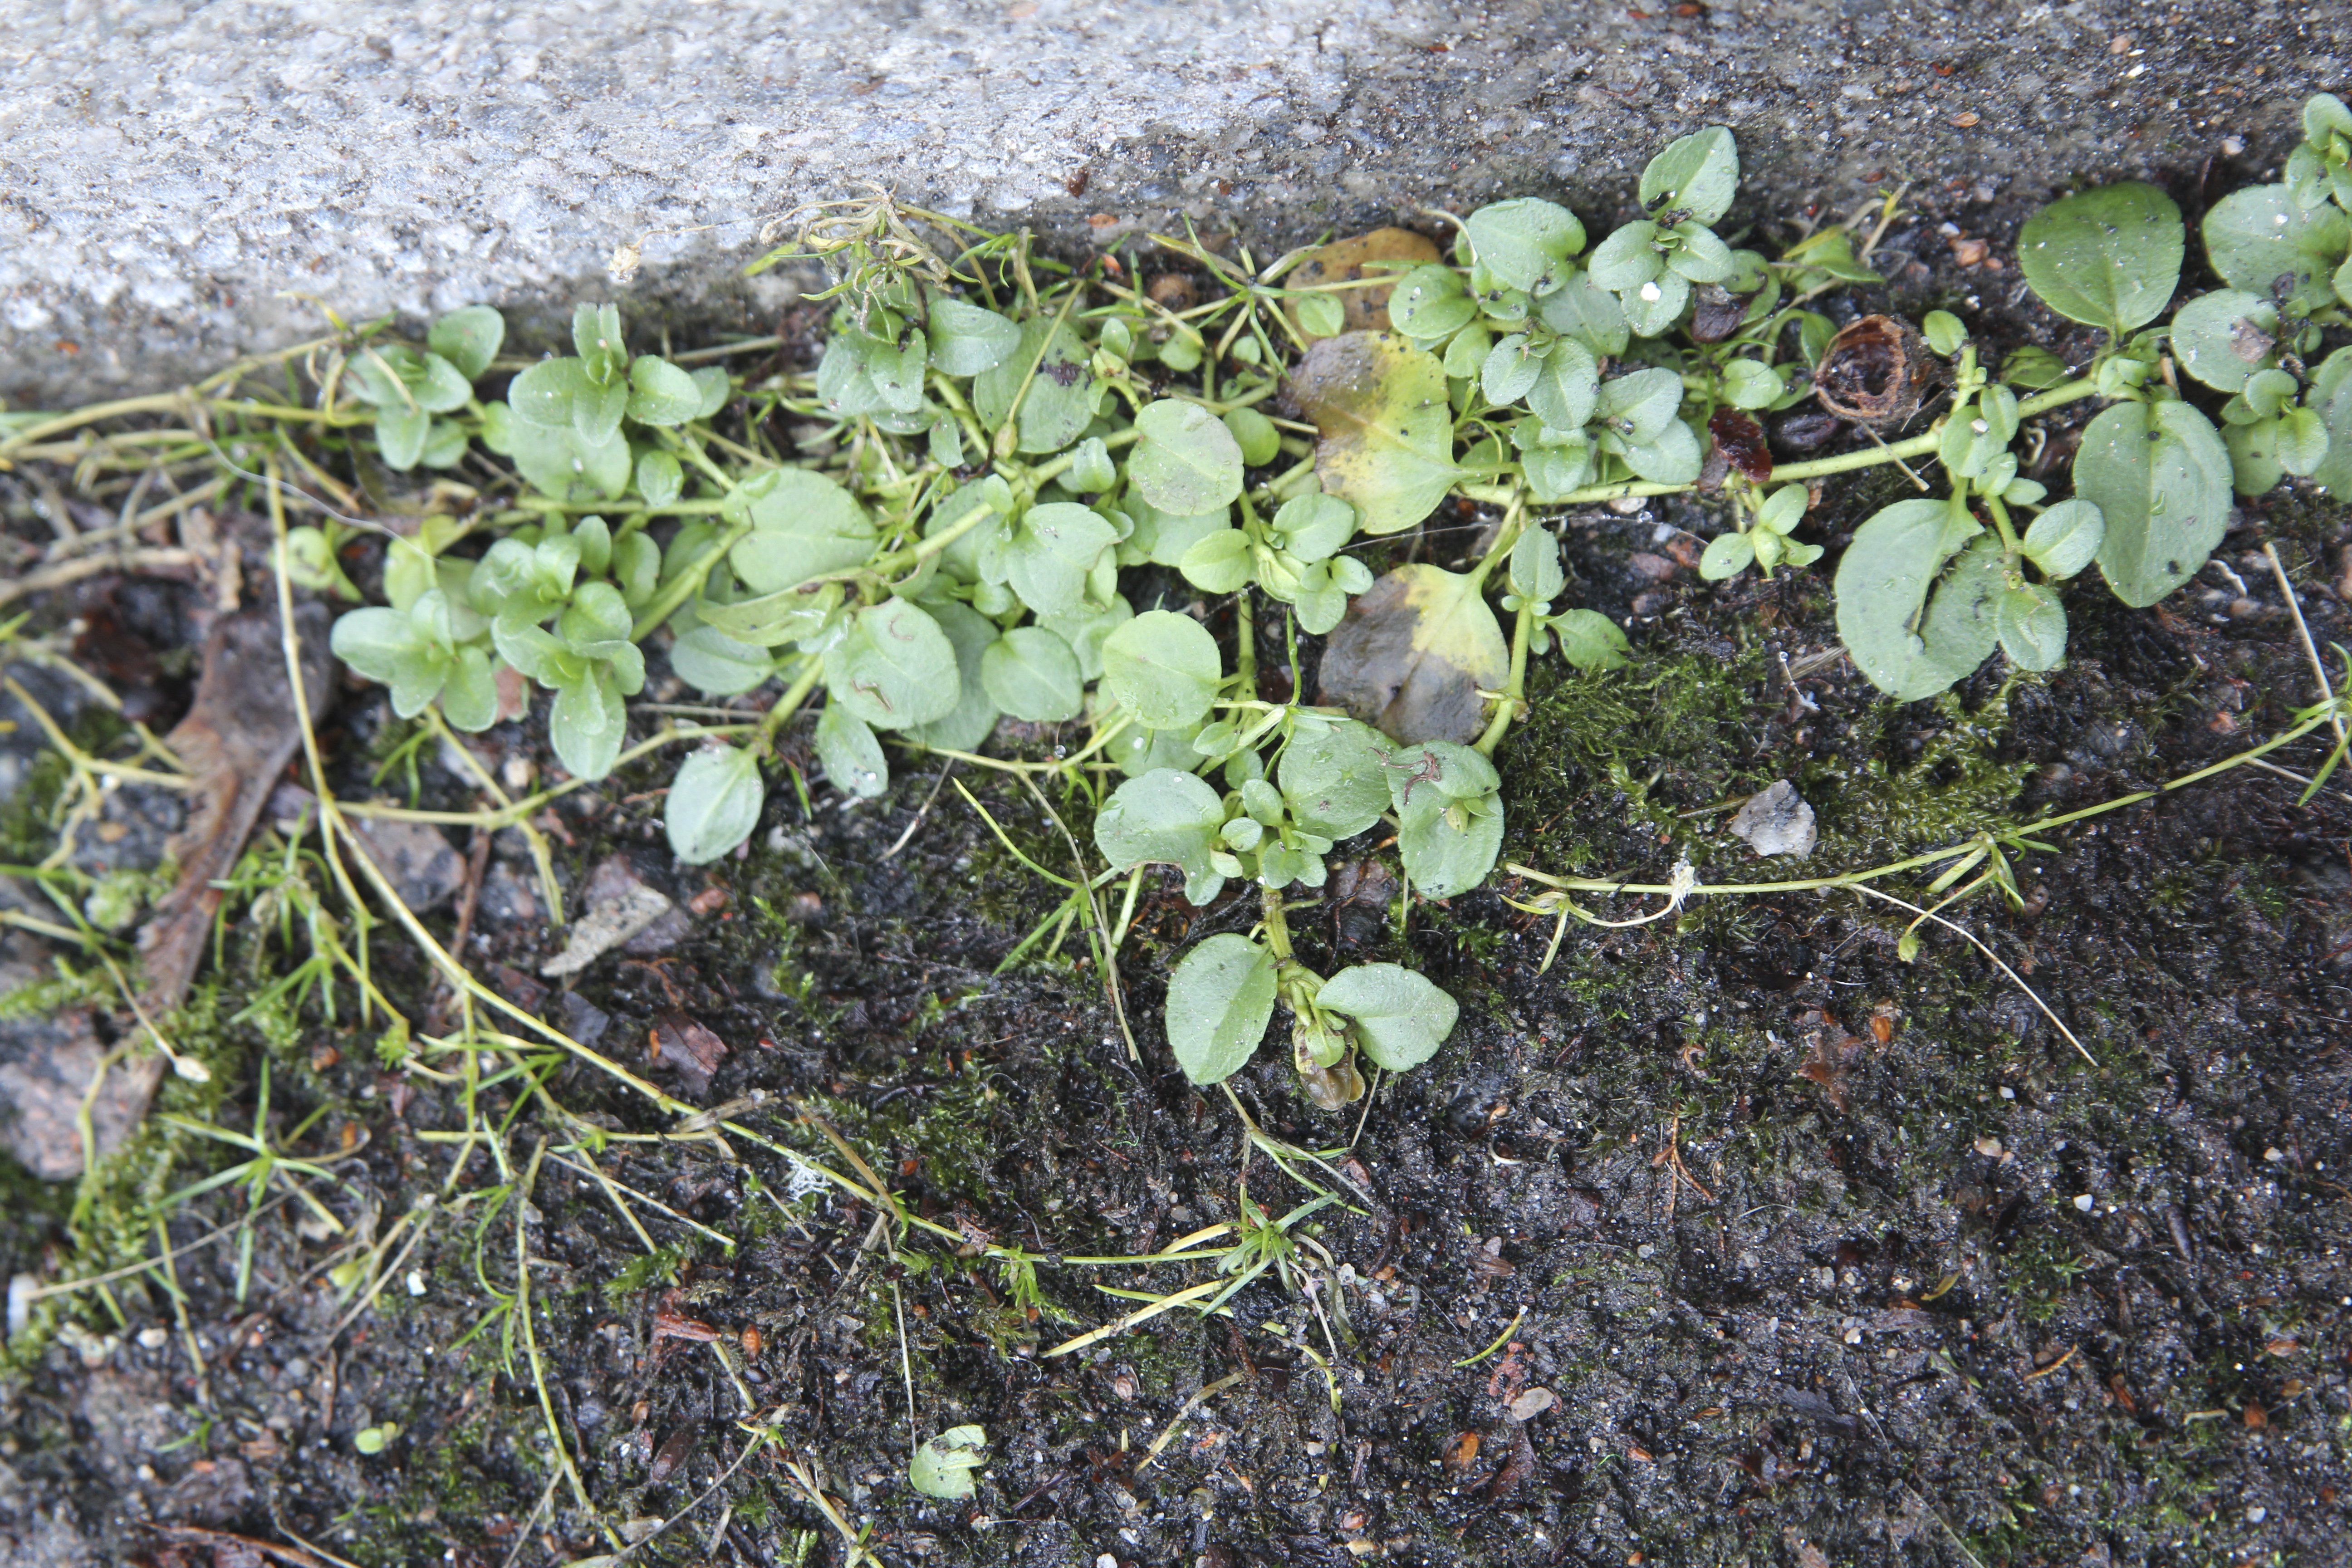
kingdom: Plantae
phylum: Tracheophyta
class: Magnoliopsida
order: Lamiales
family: Plantaginaceae
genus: Veronica
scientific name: Veronica serpyllifolia
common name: Thyme-leaved speedwell
